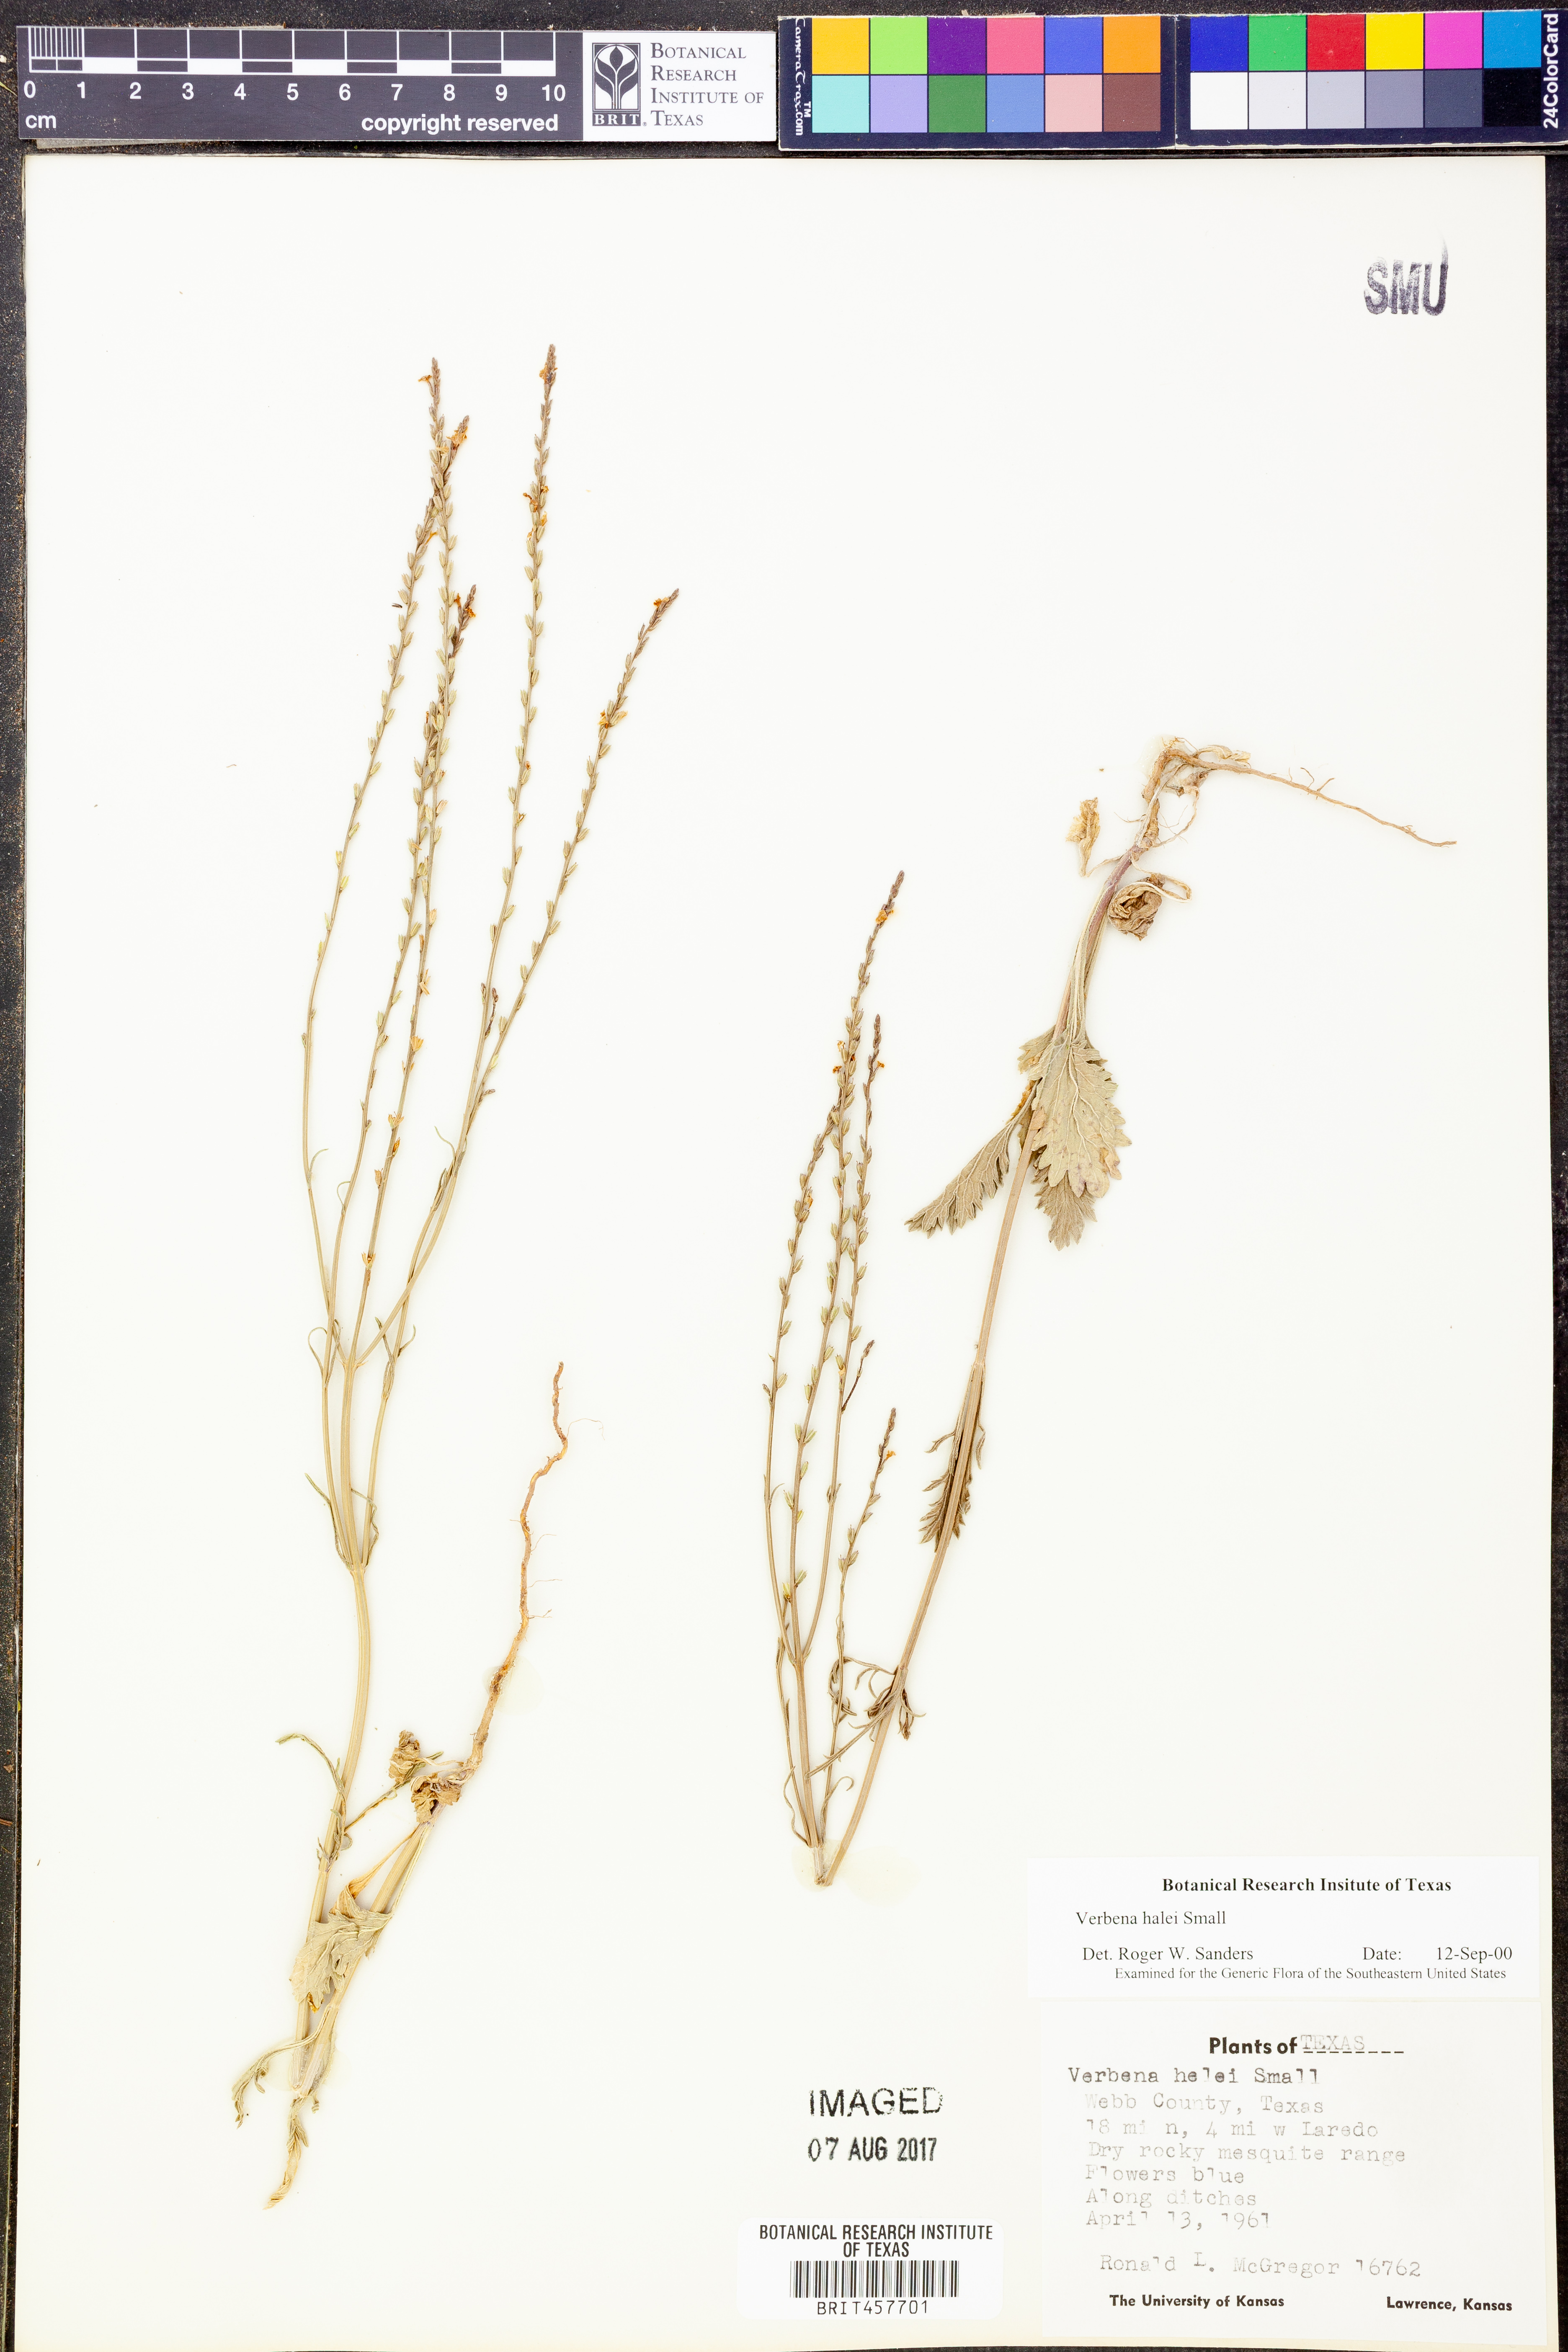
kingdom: Plantae
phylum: Tracheophyta
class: Magnoliopsida
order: Lamiales
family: Verbenaceae
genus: Verbena
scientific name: Verbena halei
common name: Texas vervain
